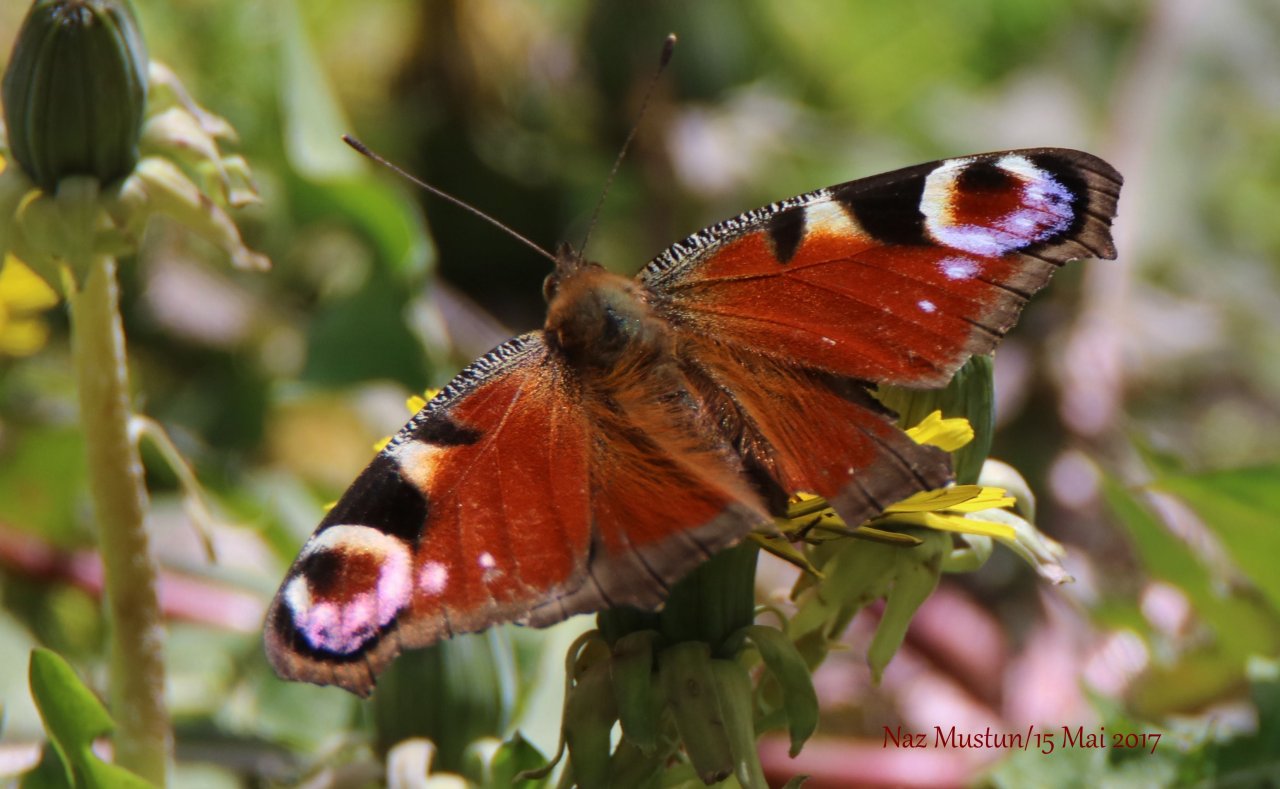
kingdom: Animalia
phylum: Arthropoda
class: Insecta
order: Lepidoptera
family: Nymphalidae
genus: Aglais
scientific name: Aglais io
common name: European Peacock
